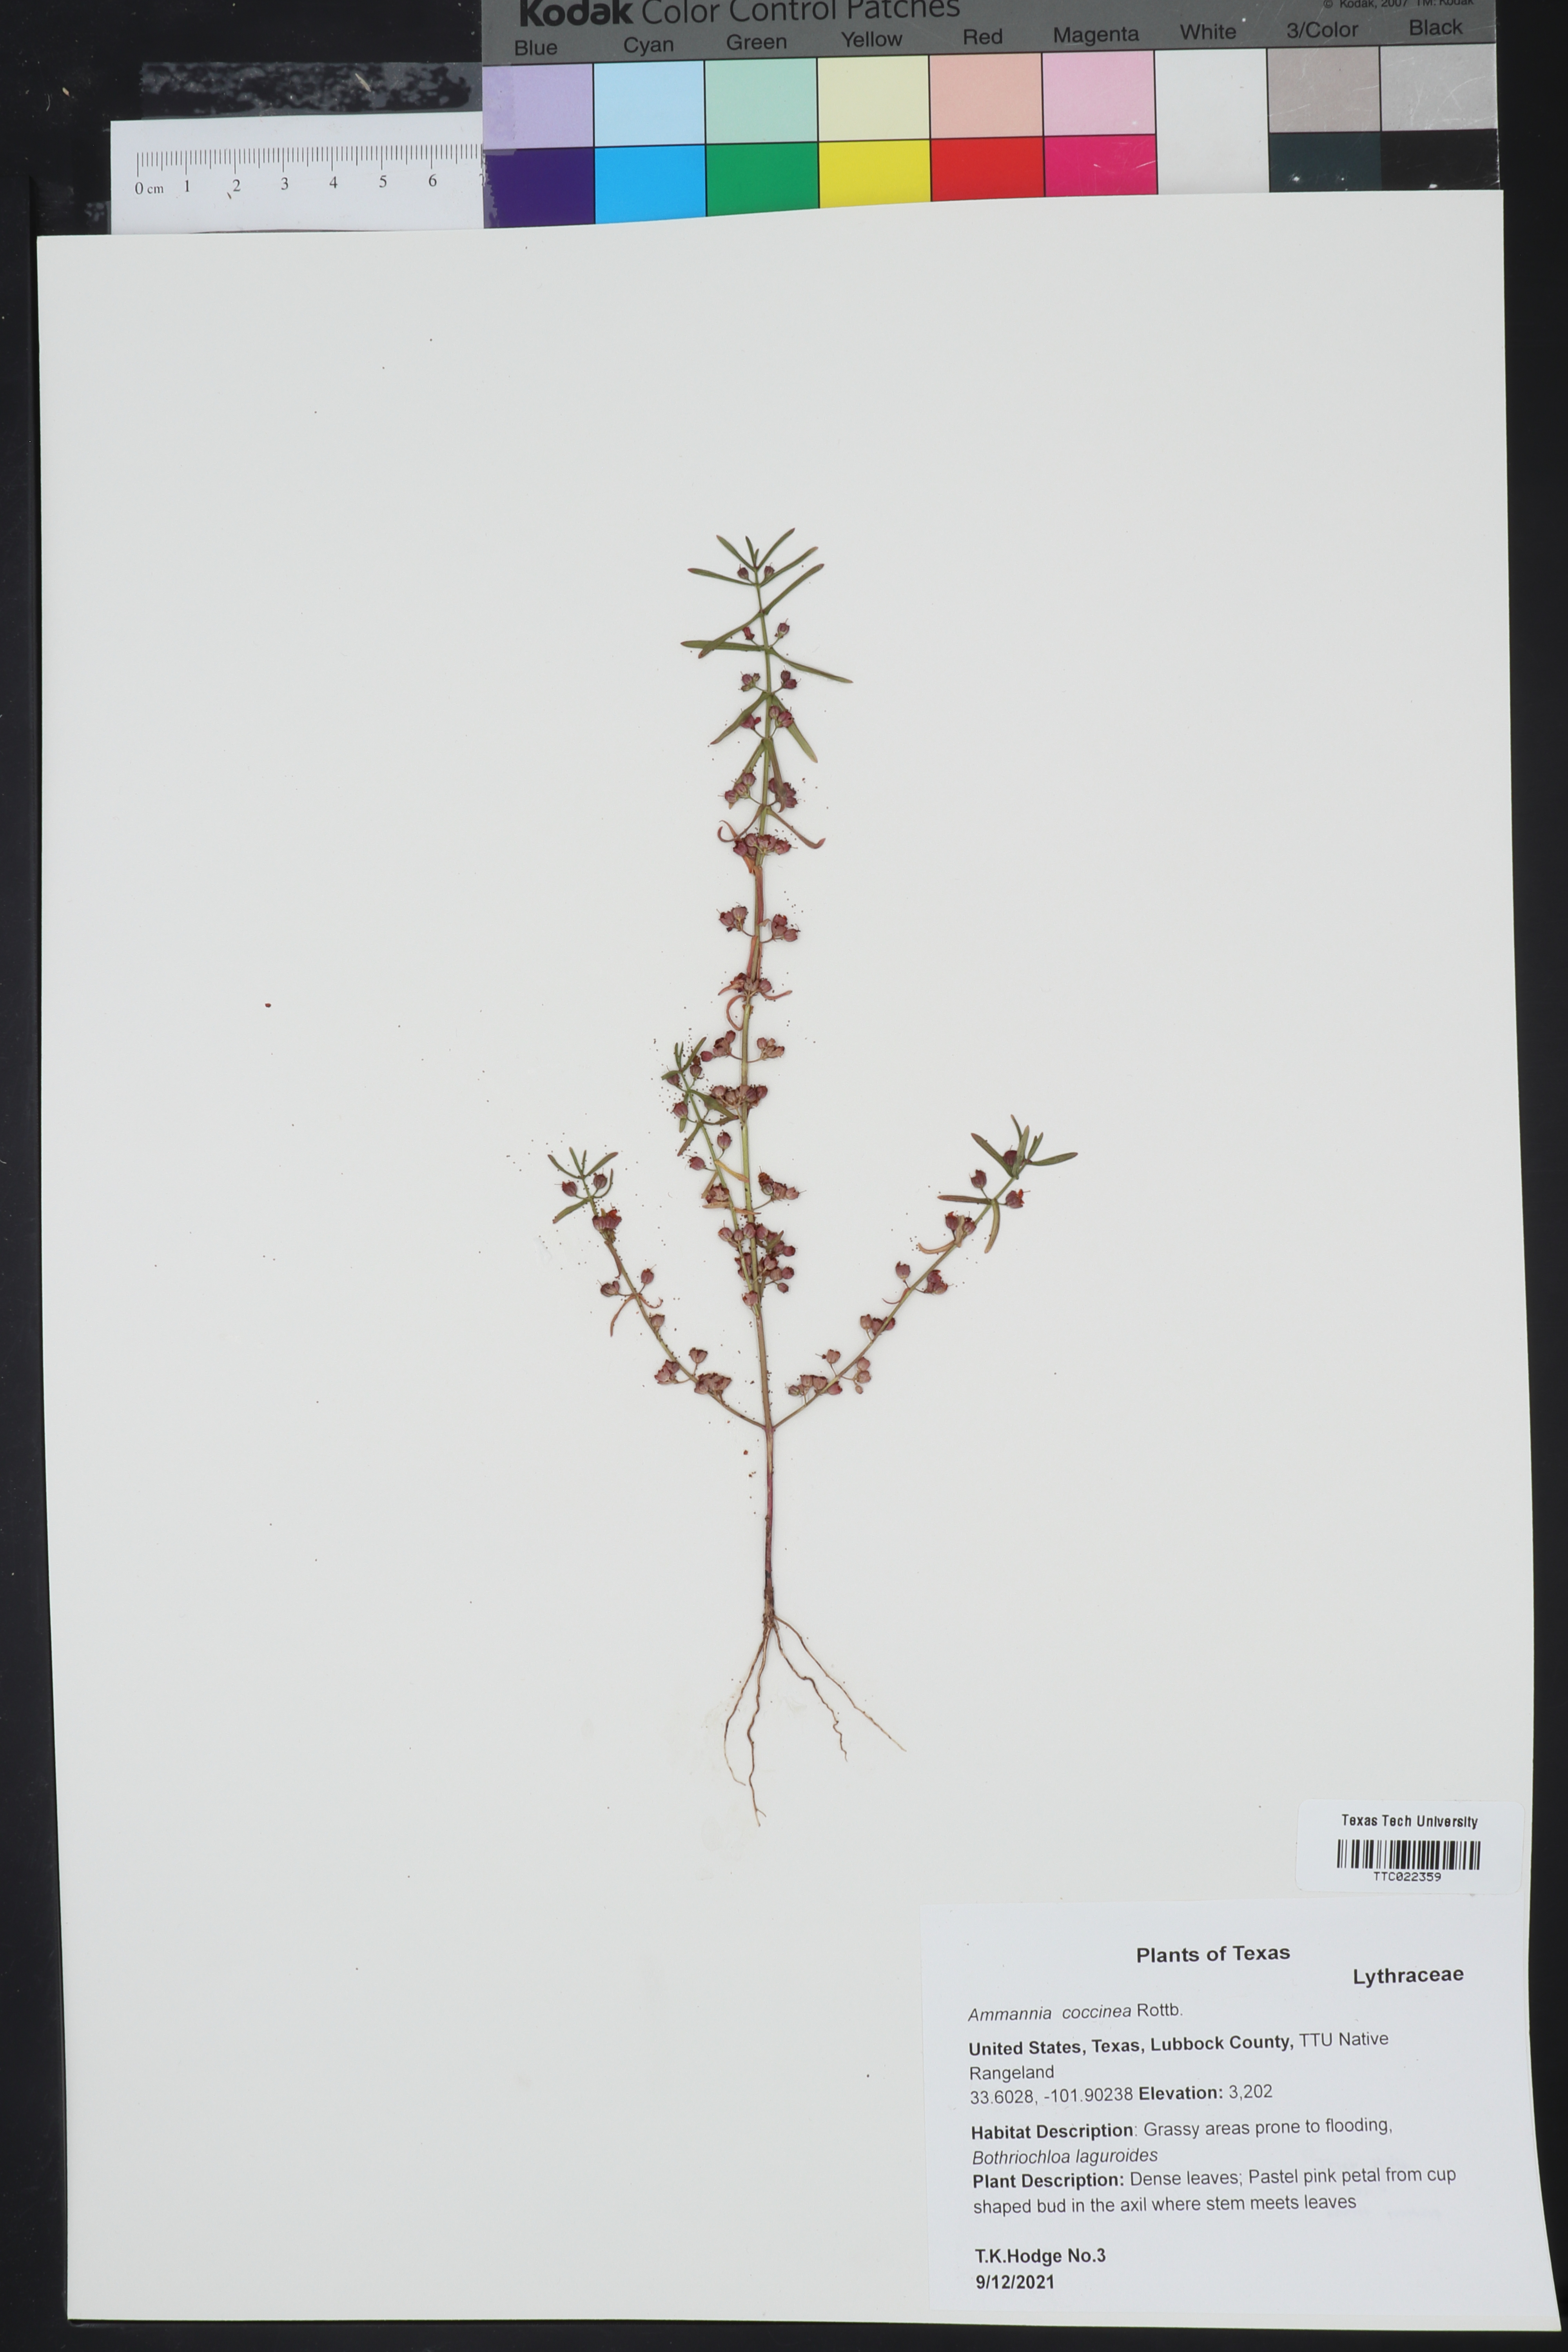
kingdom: Plantae
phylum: Tracheophyta
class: Magnoliopsida
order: Myrtales
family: Lythraceae
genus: Ammannia
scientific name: Ammannia coccinea
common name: Valley redstem
